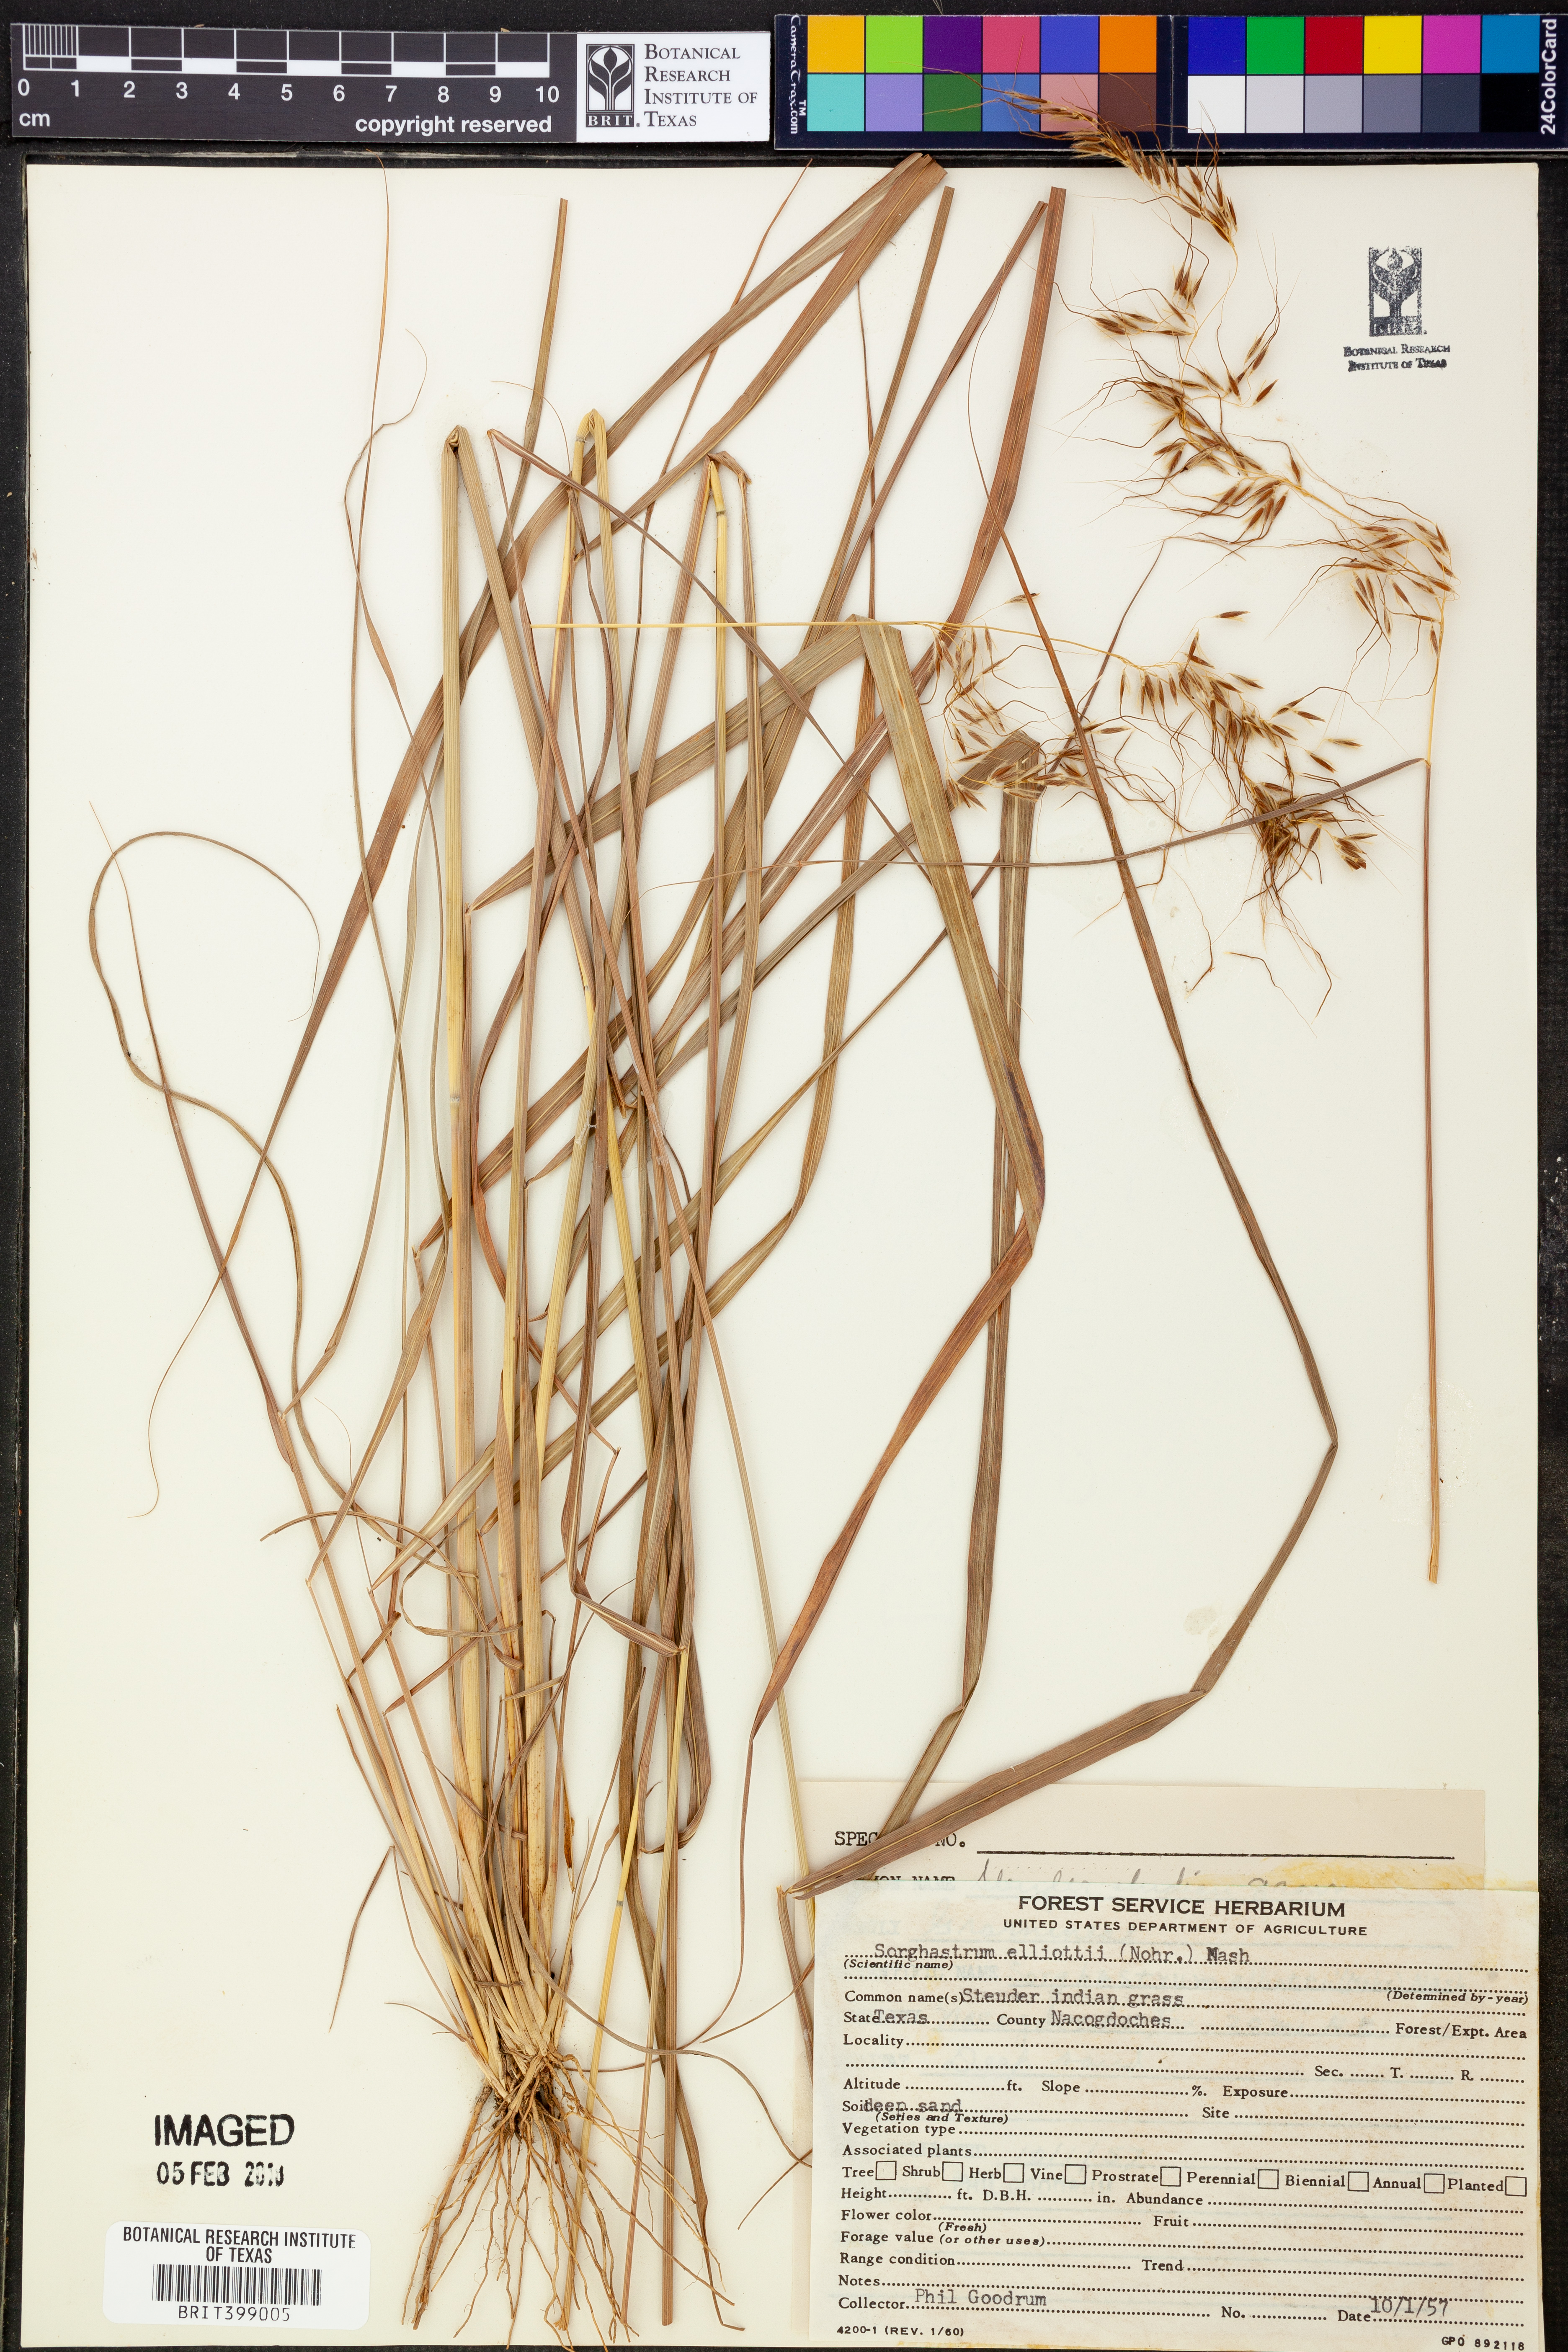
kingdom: Plantae
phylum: Tracheophyta
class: Liliopsida
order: Poales
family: Poaceae
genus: Sorghastrum
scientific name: Sorghastrum elliottii
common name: Slender indian grass
